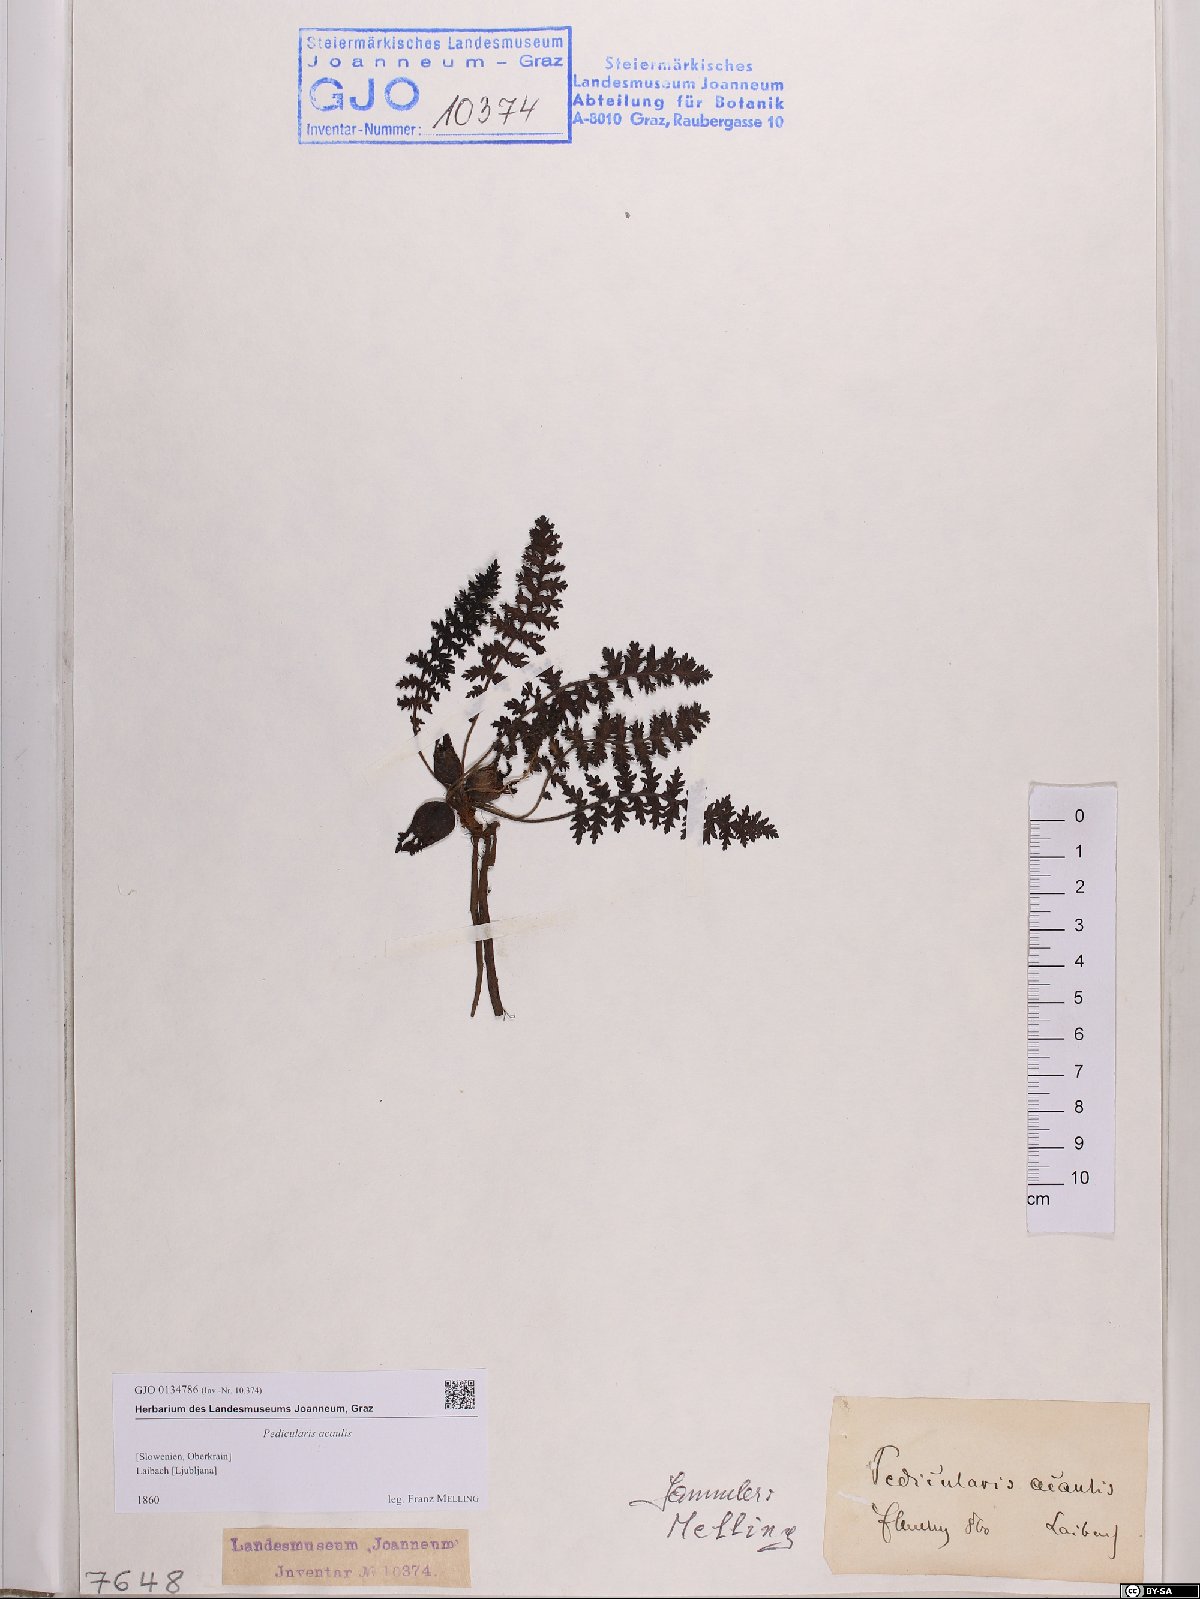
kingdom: Plantae
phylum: Tracheophyta
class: Magnoliopsida
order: Lamiales
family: Orobanchaceae
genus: Pedicularis
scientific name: Pedicularis acaulis
